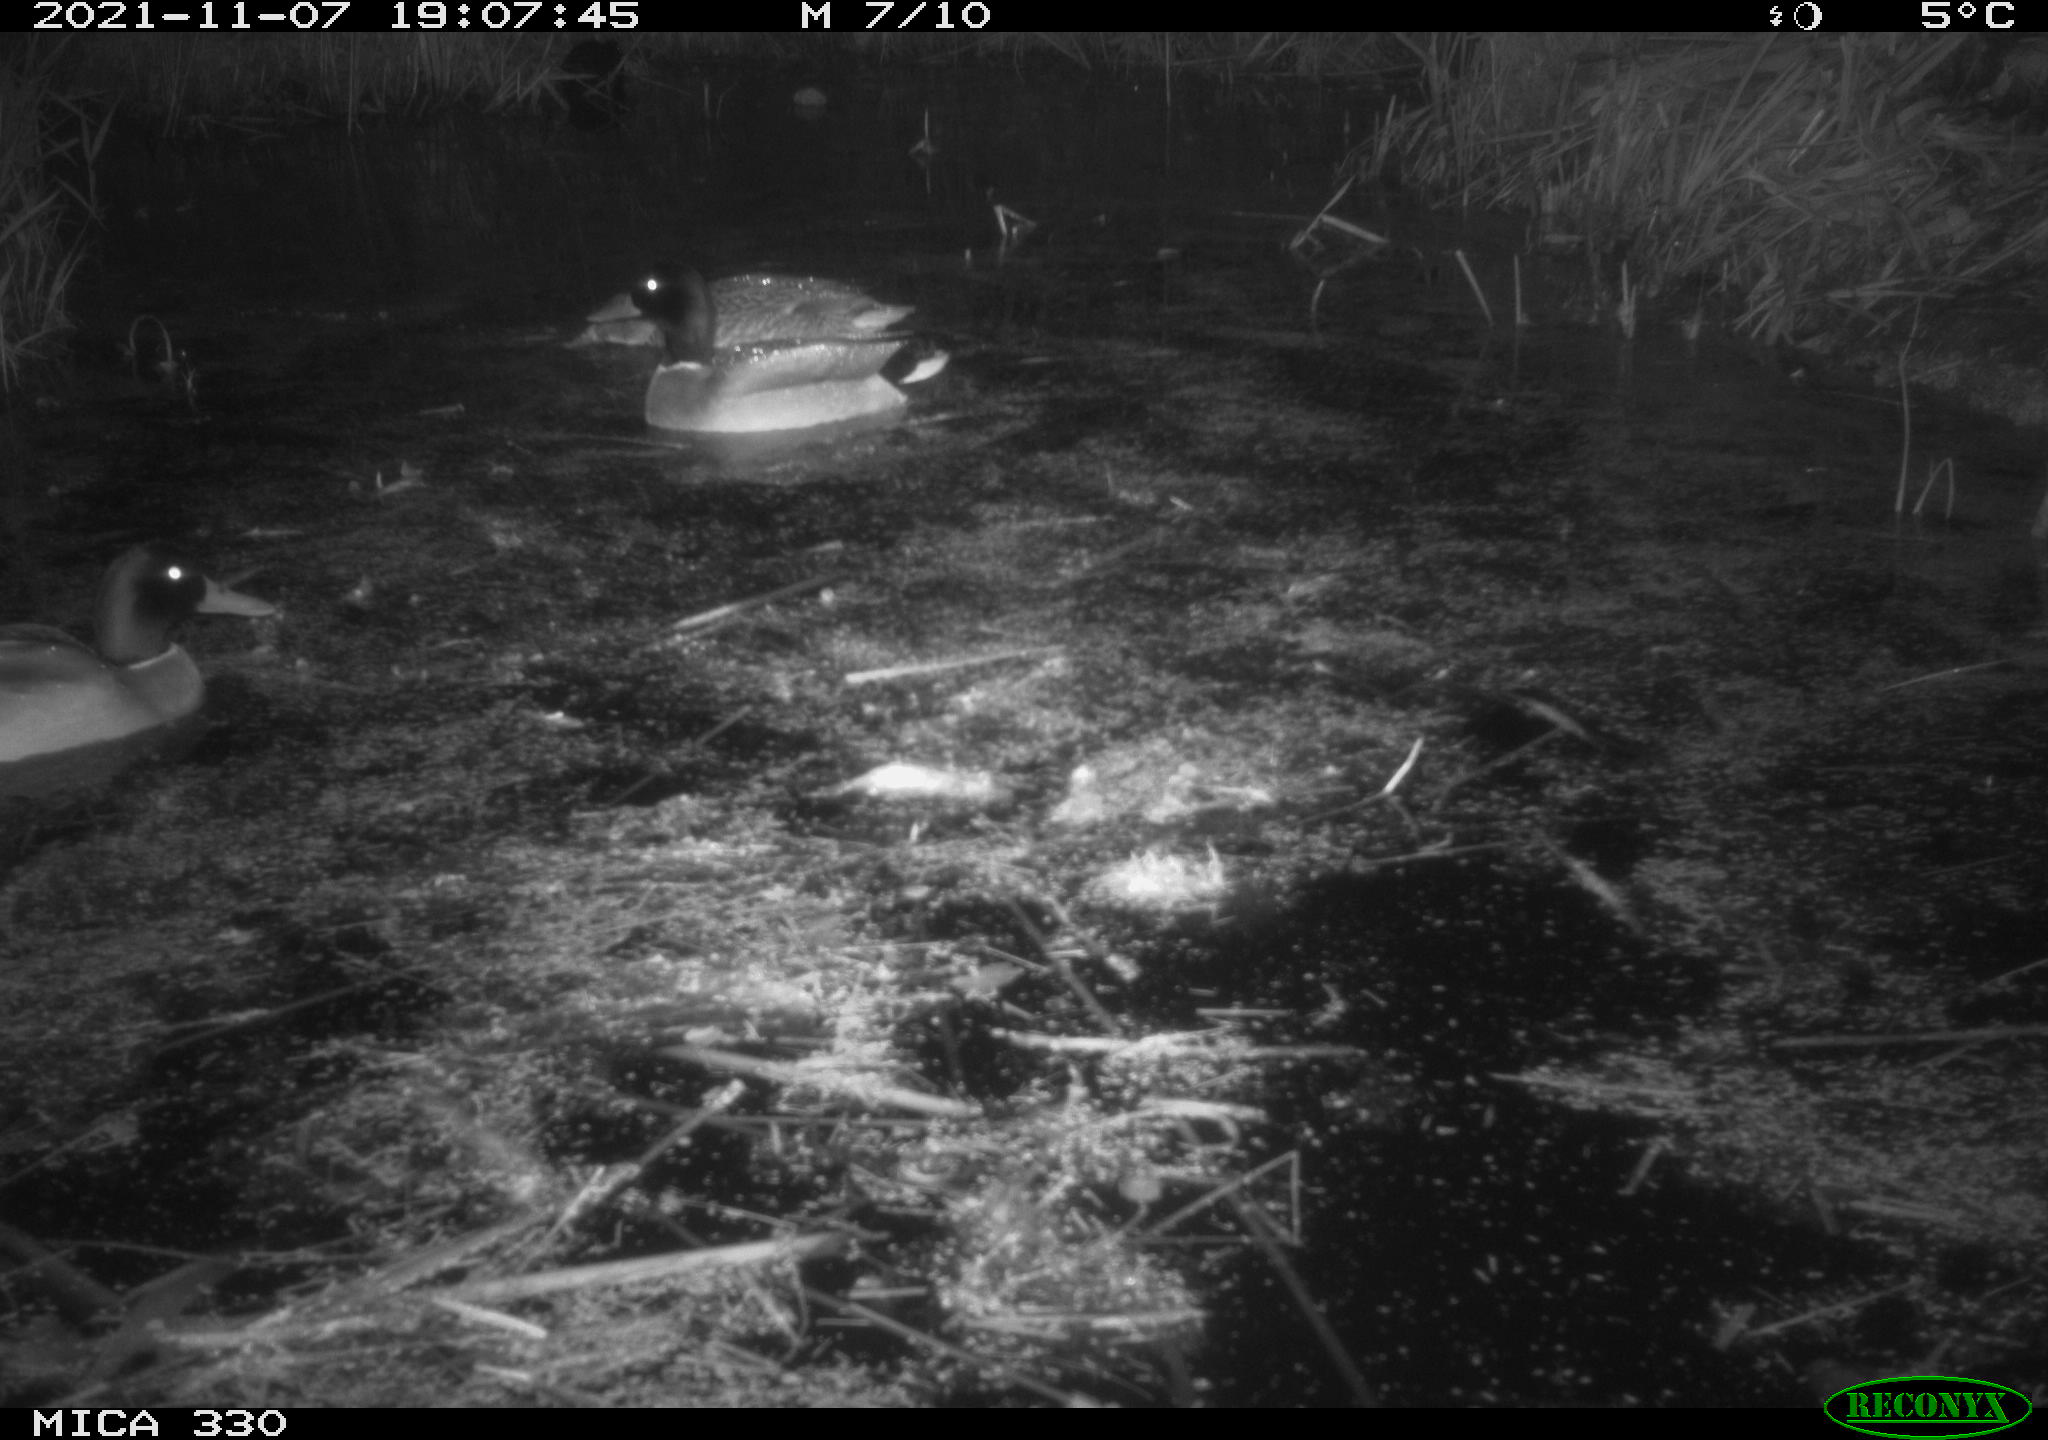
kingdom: Animalia
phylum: Chordata
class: Aves
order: Anseriformes
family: Anatidae
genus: Anas
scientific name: Anas platyrhynchos
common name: Mallard
